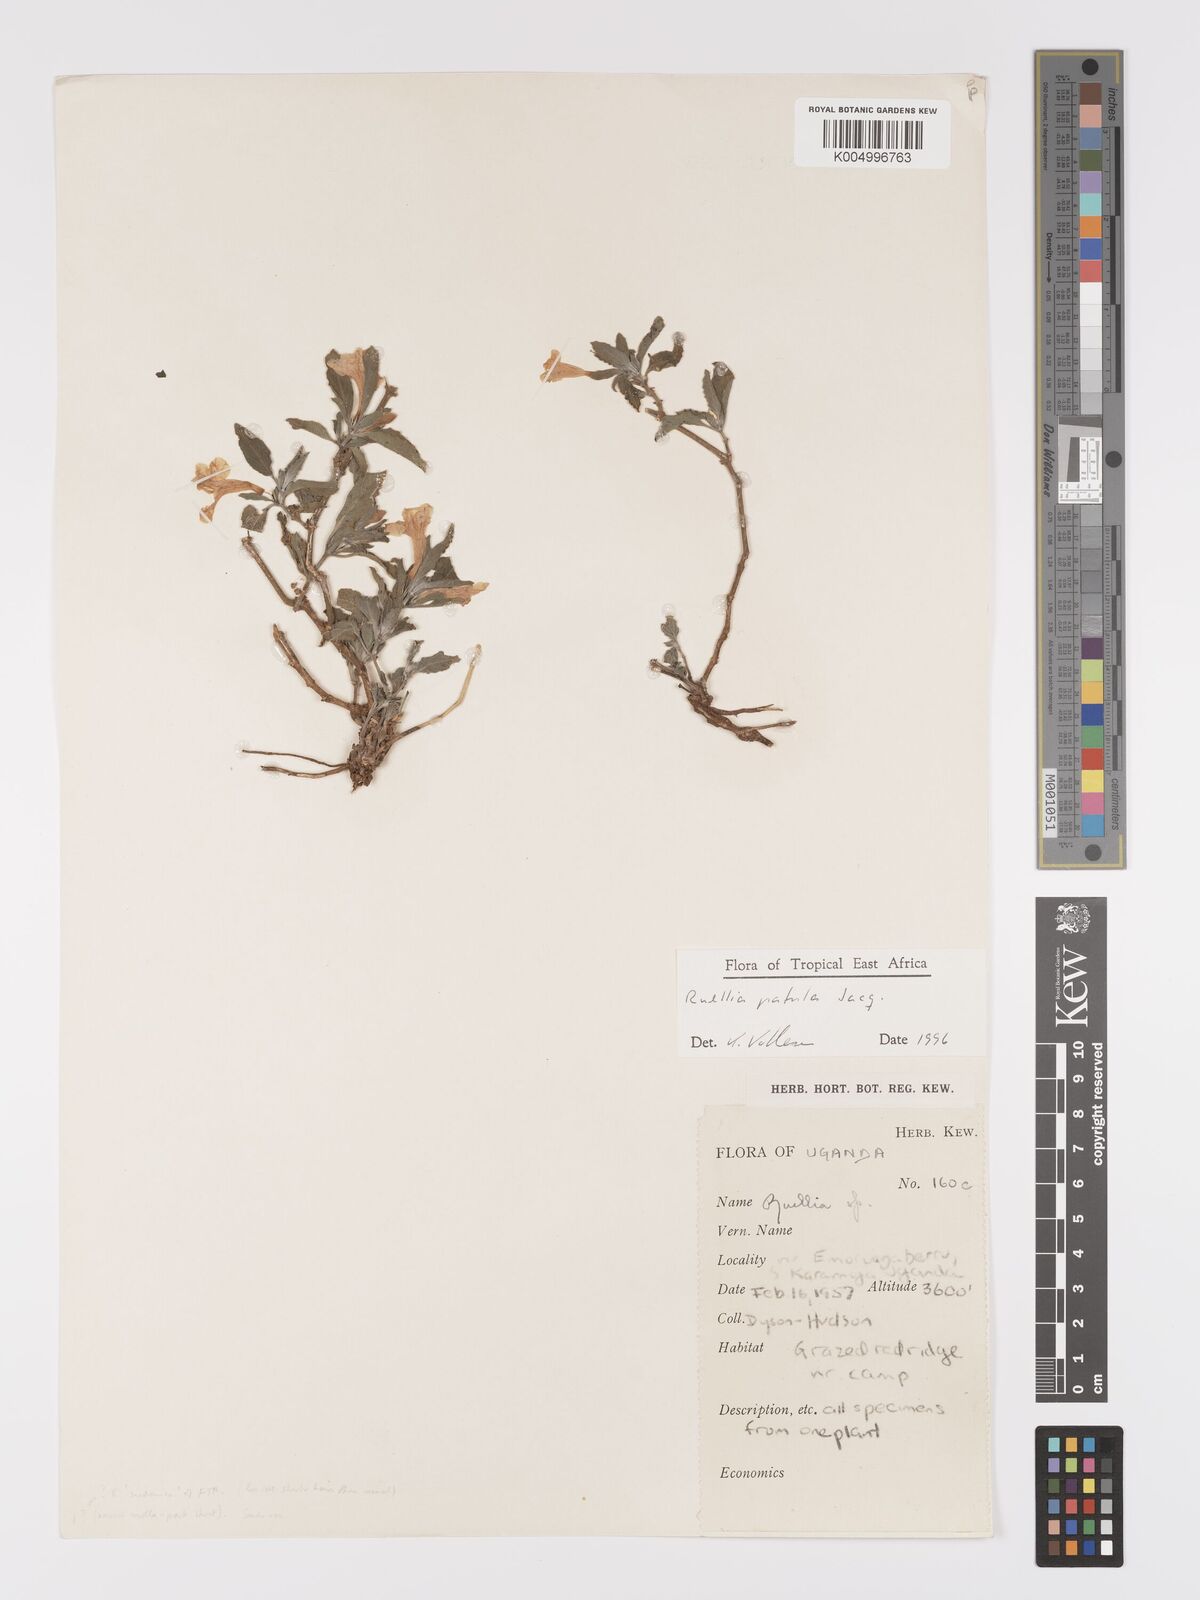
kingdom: Plantae
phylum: Tracheophyta
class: Magnoliopsida
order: Lamiales
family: Acanthaceae
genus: Ruellia
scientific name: Ruellia patula
